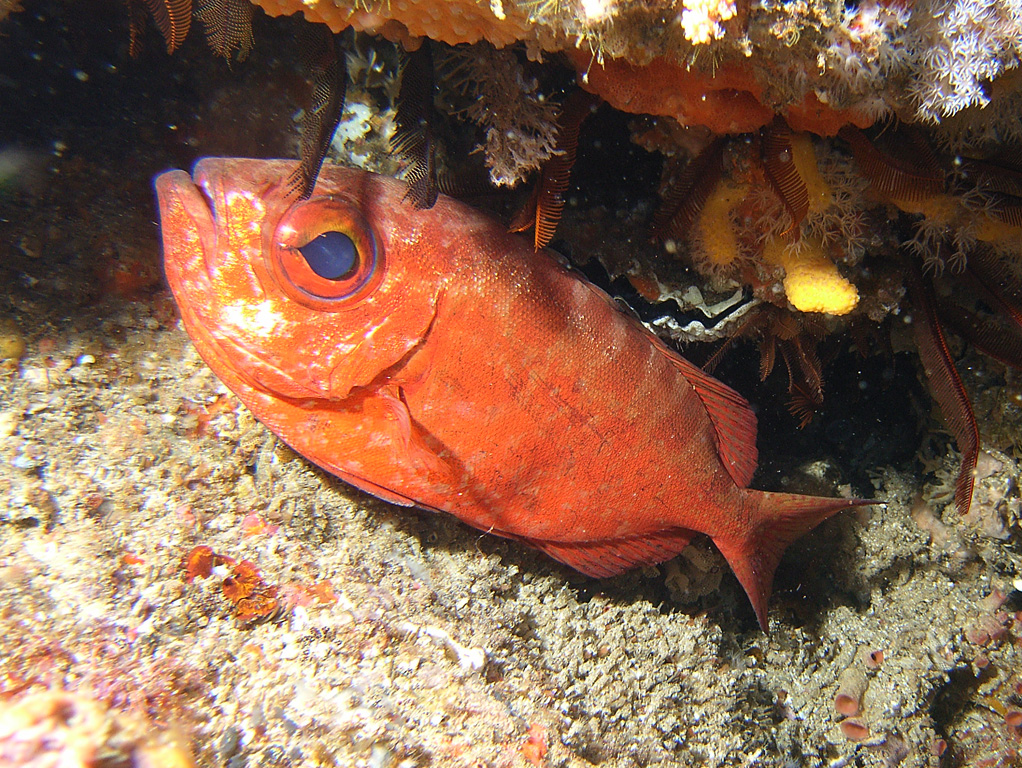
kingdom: Animalia
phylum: Chordata
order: Perciformes
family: Priacanthidae
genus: Priacanthus
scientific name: Priacanthus hamrur
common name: Moontail bullseye
